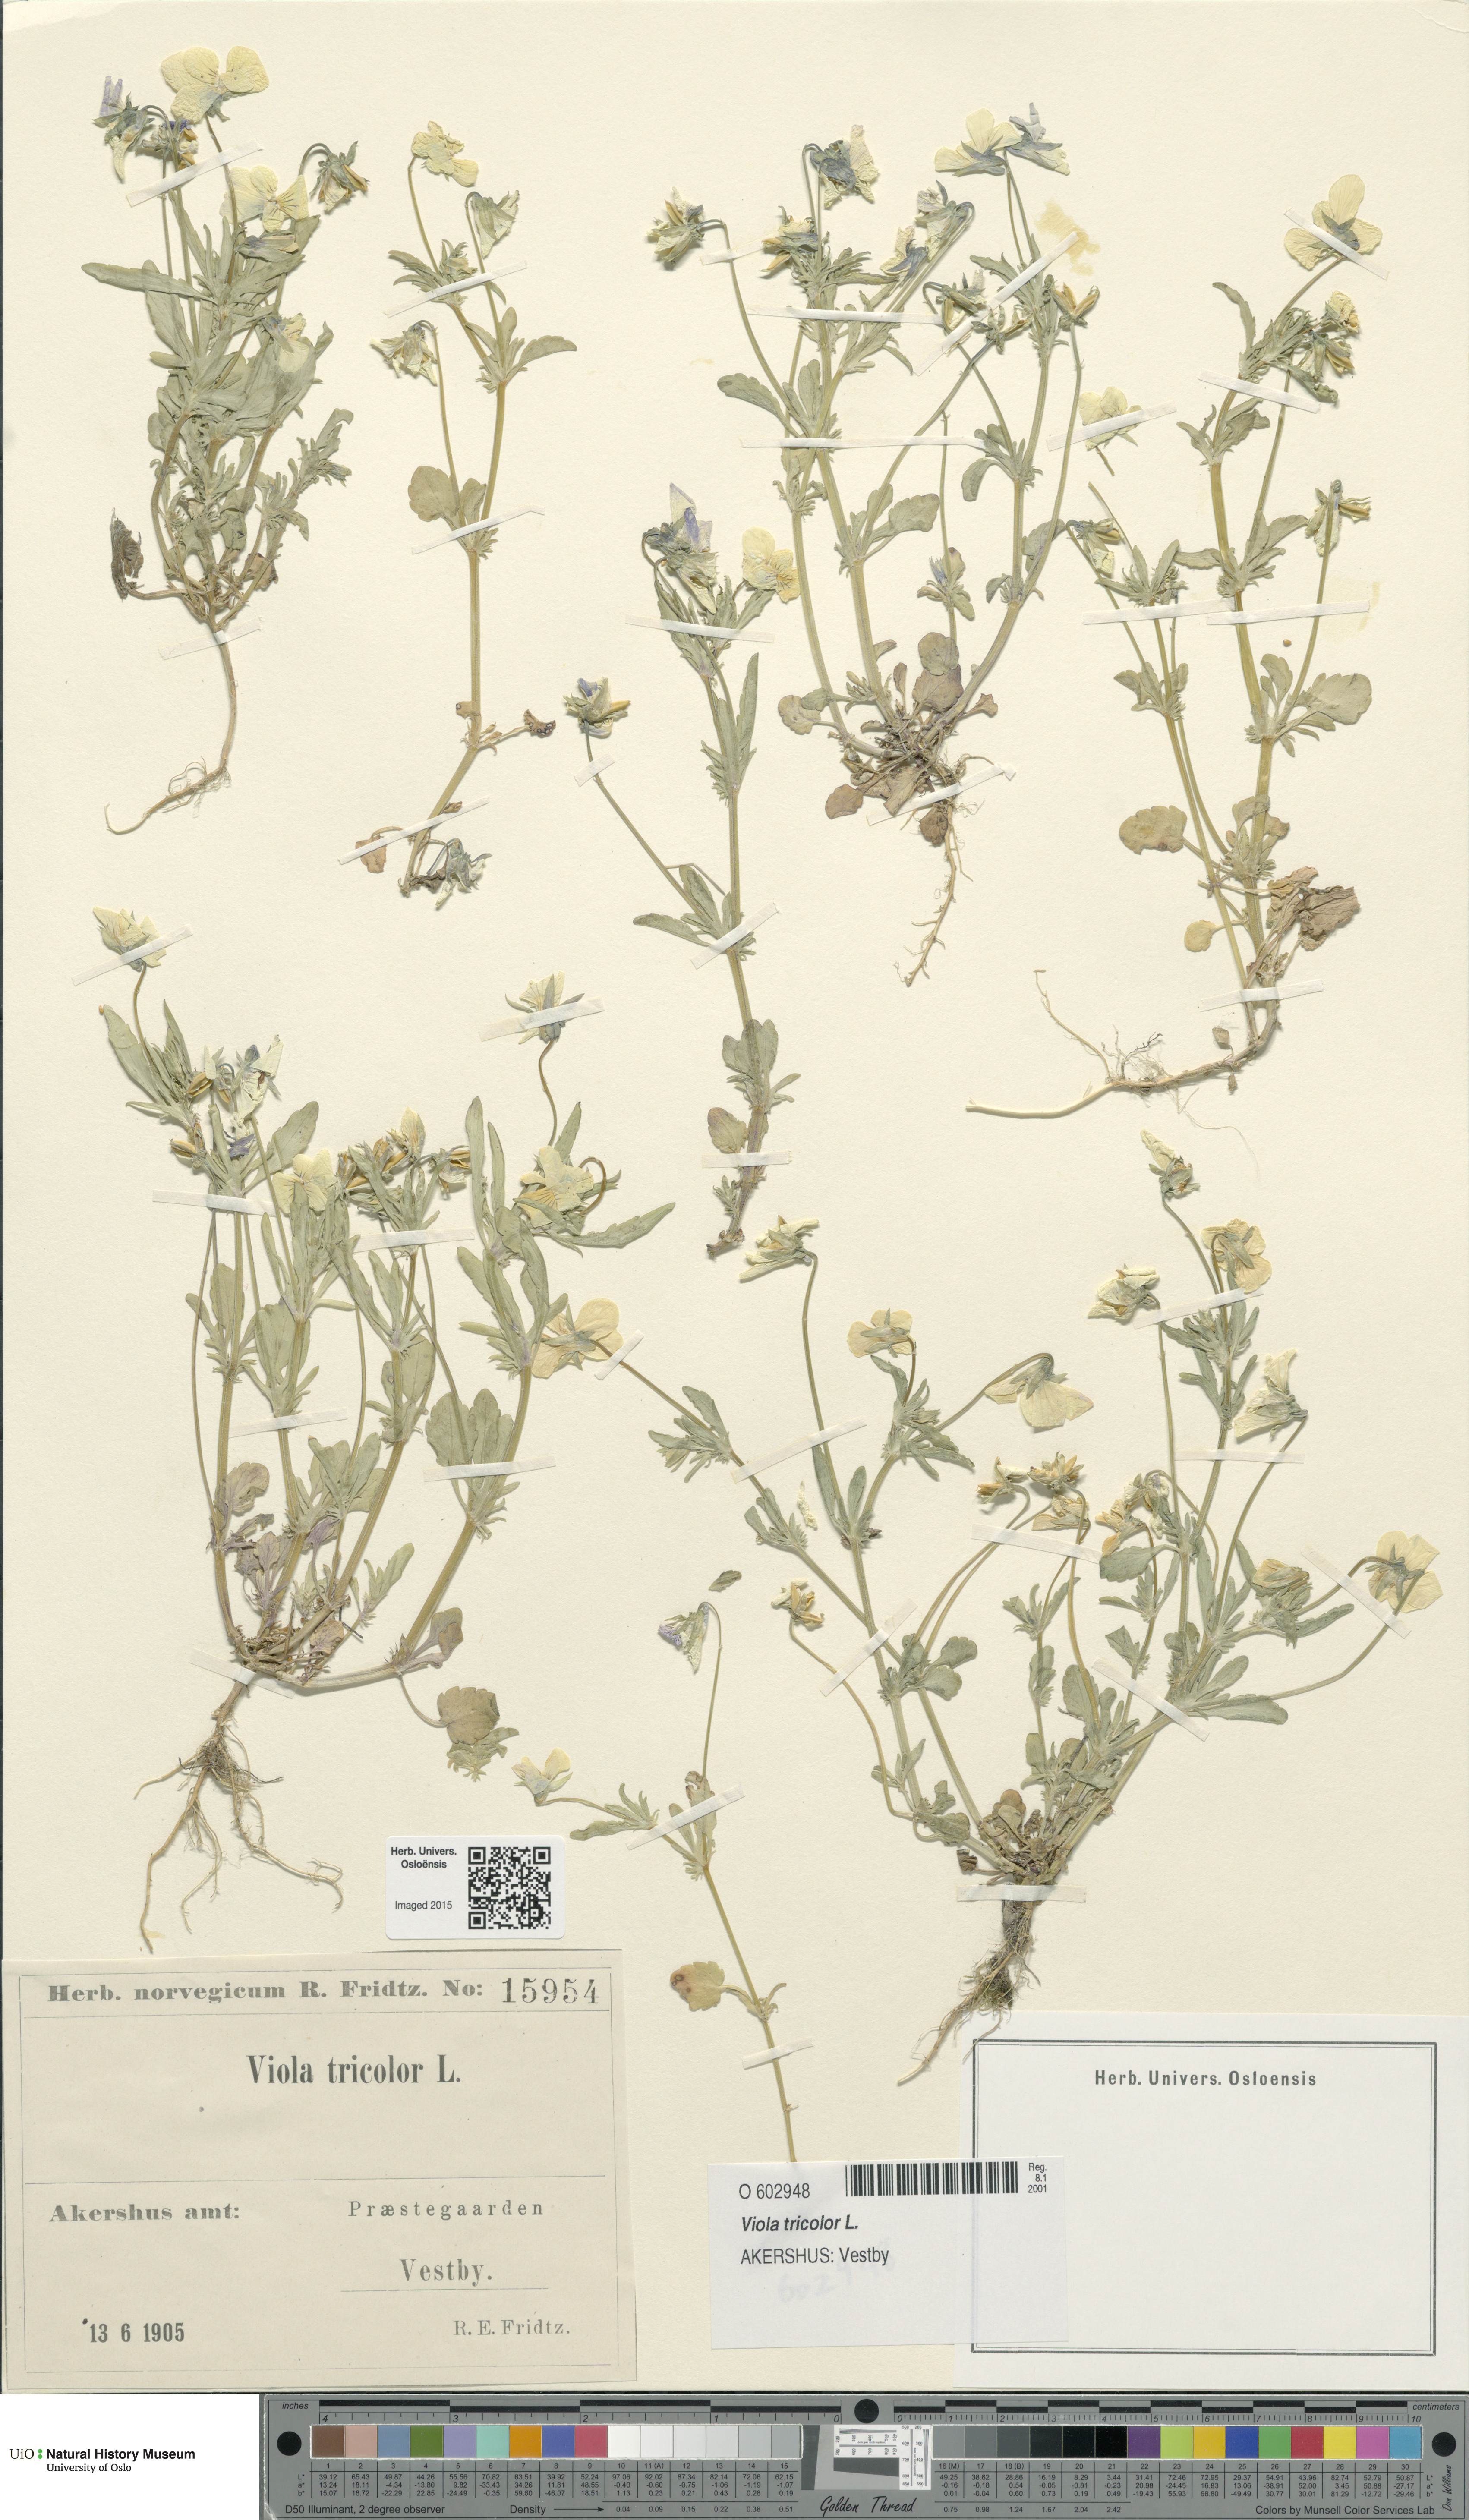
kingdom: Plantae
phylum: Tracheophyta
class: Magnoliopsida
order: Malpighiales
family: Violaceae
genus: Viola
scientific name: Viola tricolor
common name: Pansy
